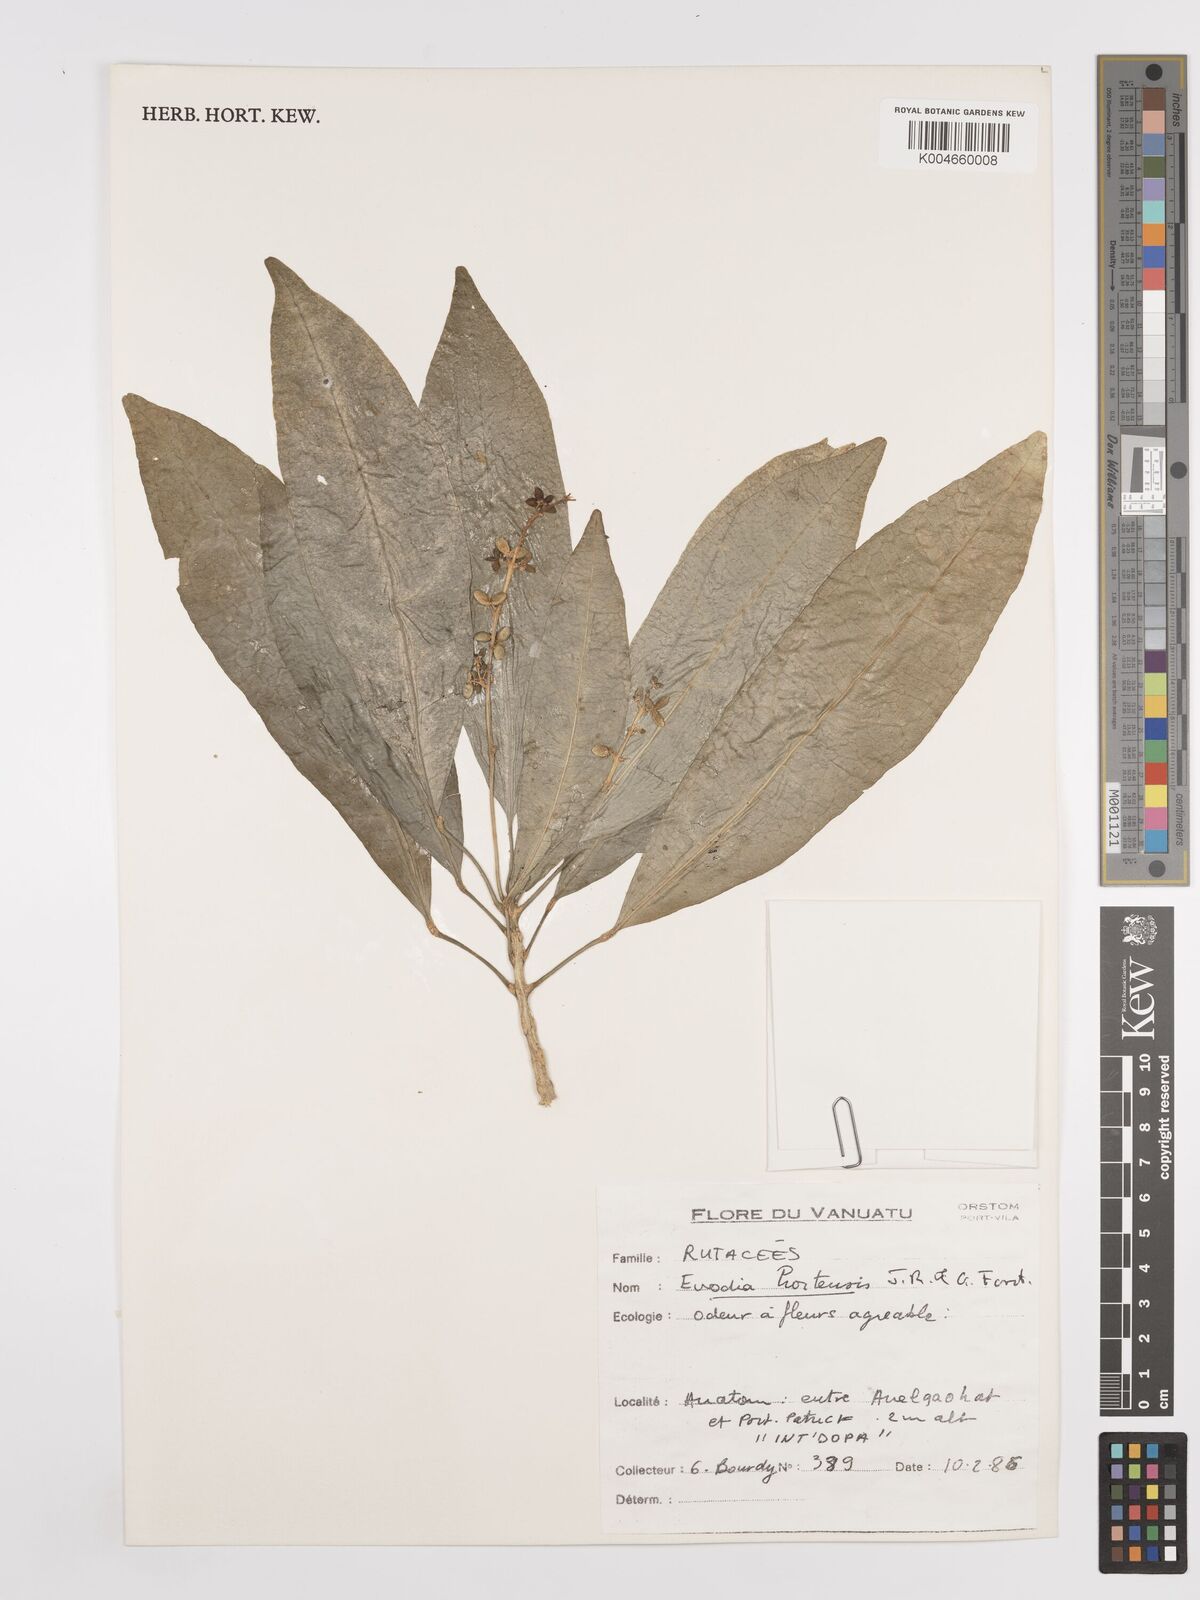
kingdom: Plantae
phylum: Tracheophyta
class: Magnoliopsida
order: Sapindales
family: Rutaceae
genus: Euodia
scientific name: Euodia hortensis
